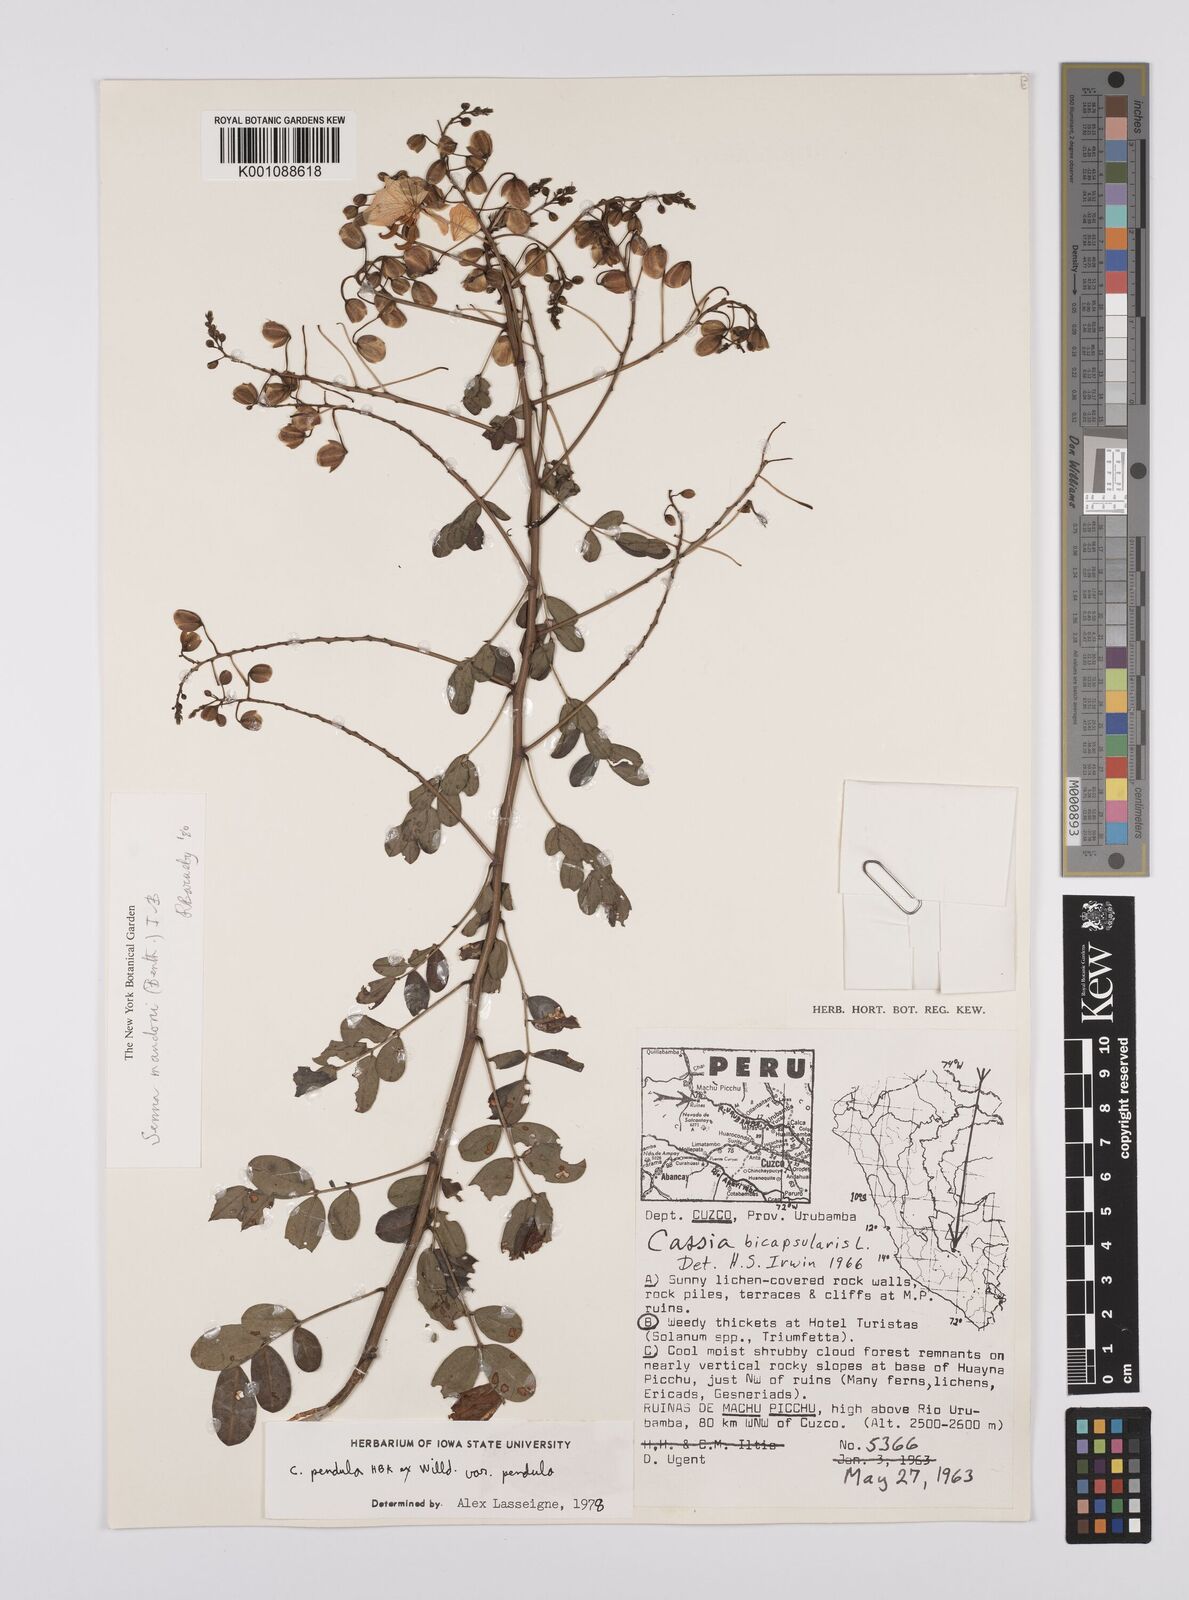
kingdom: Plantae
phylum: Tracheophyta
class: Magnoliopsida
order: Fabales
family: Fabaceae
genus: Senna
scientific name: Senna mandonii
